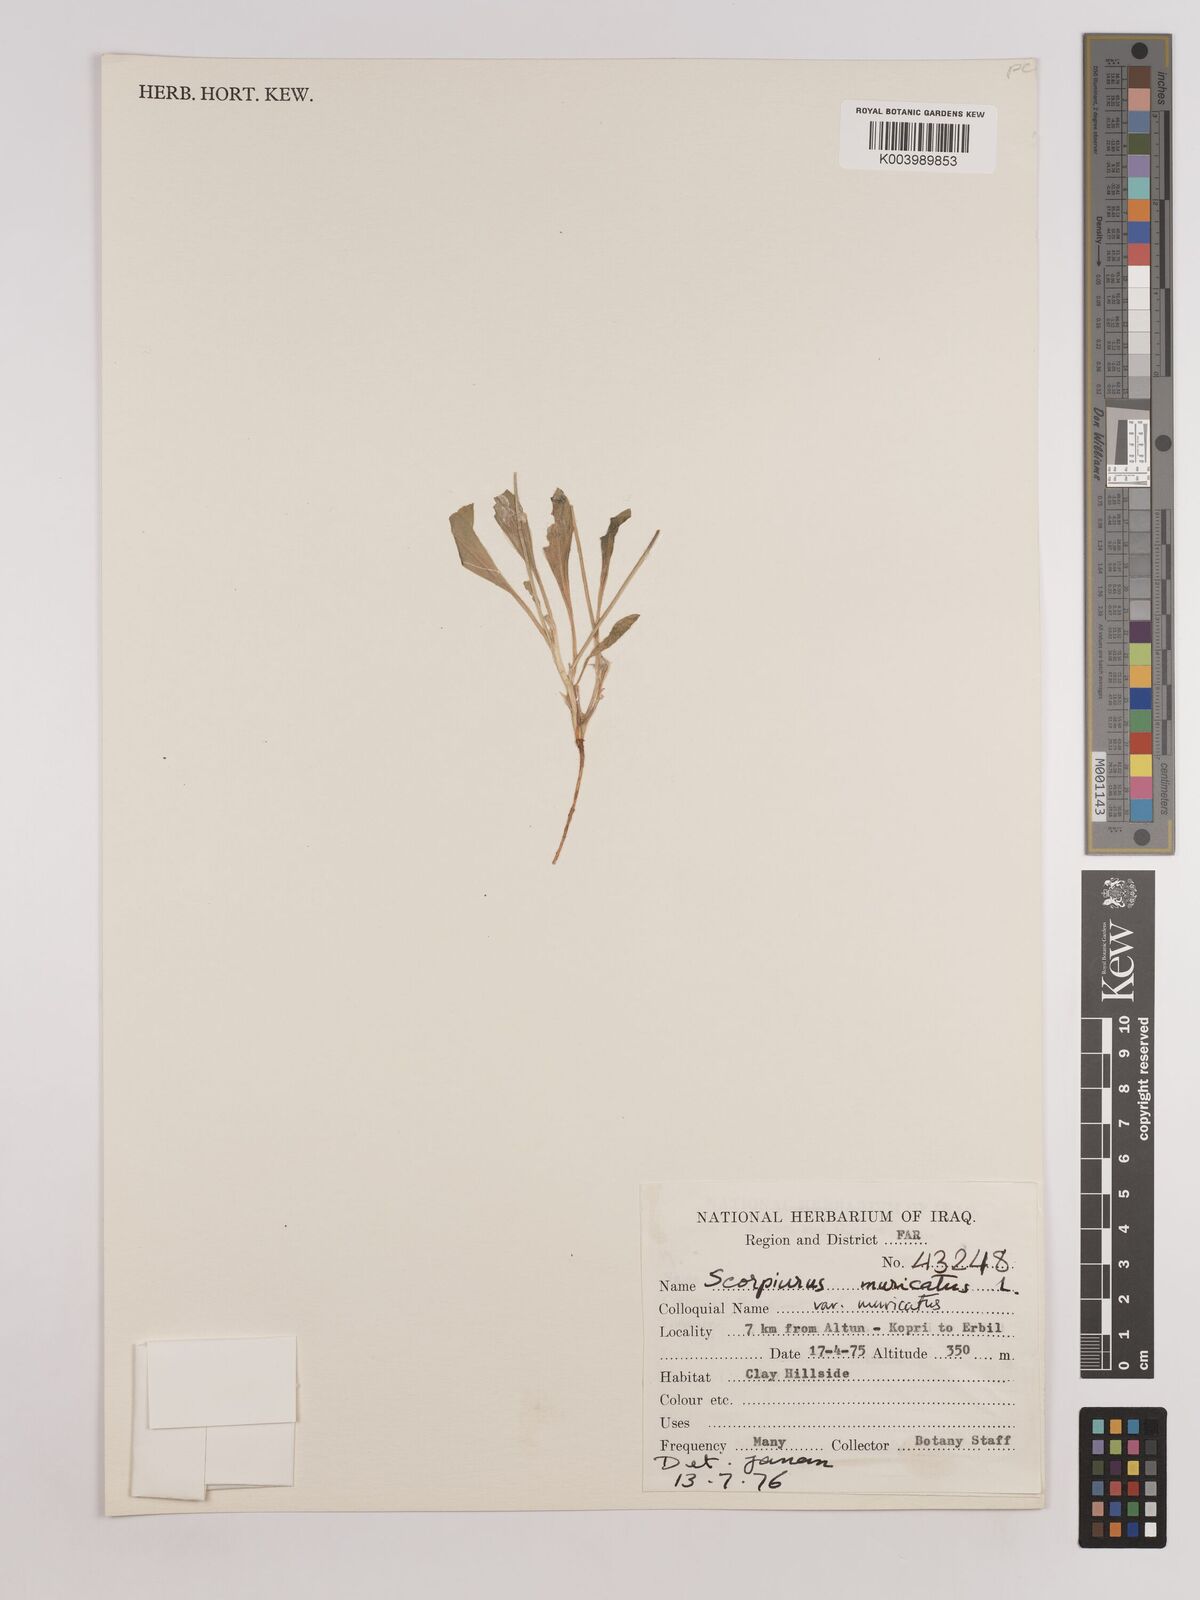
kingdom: Plantae
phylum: Tracheophyta
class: Magnoliopsida
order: Fabales
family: Fabaceae
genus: Scorpiurus
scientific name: Scorpiurus muricatus
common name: Caterpillar-plant
